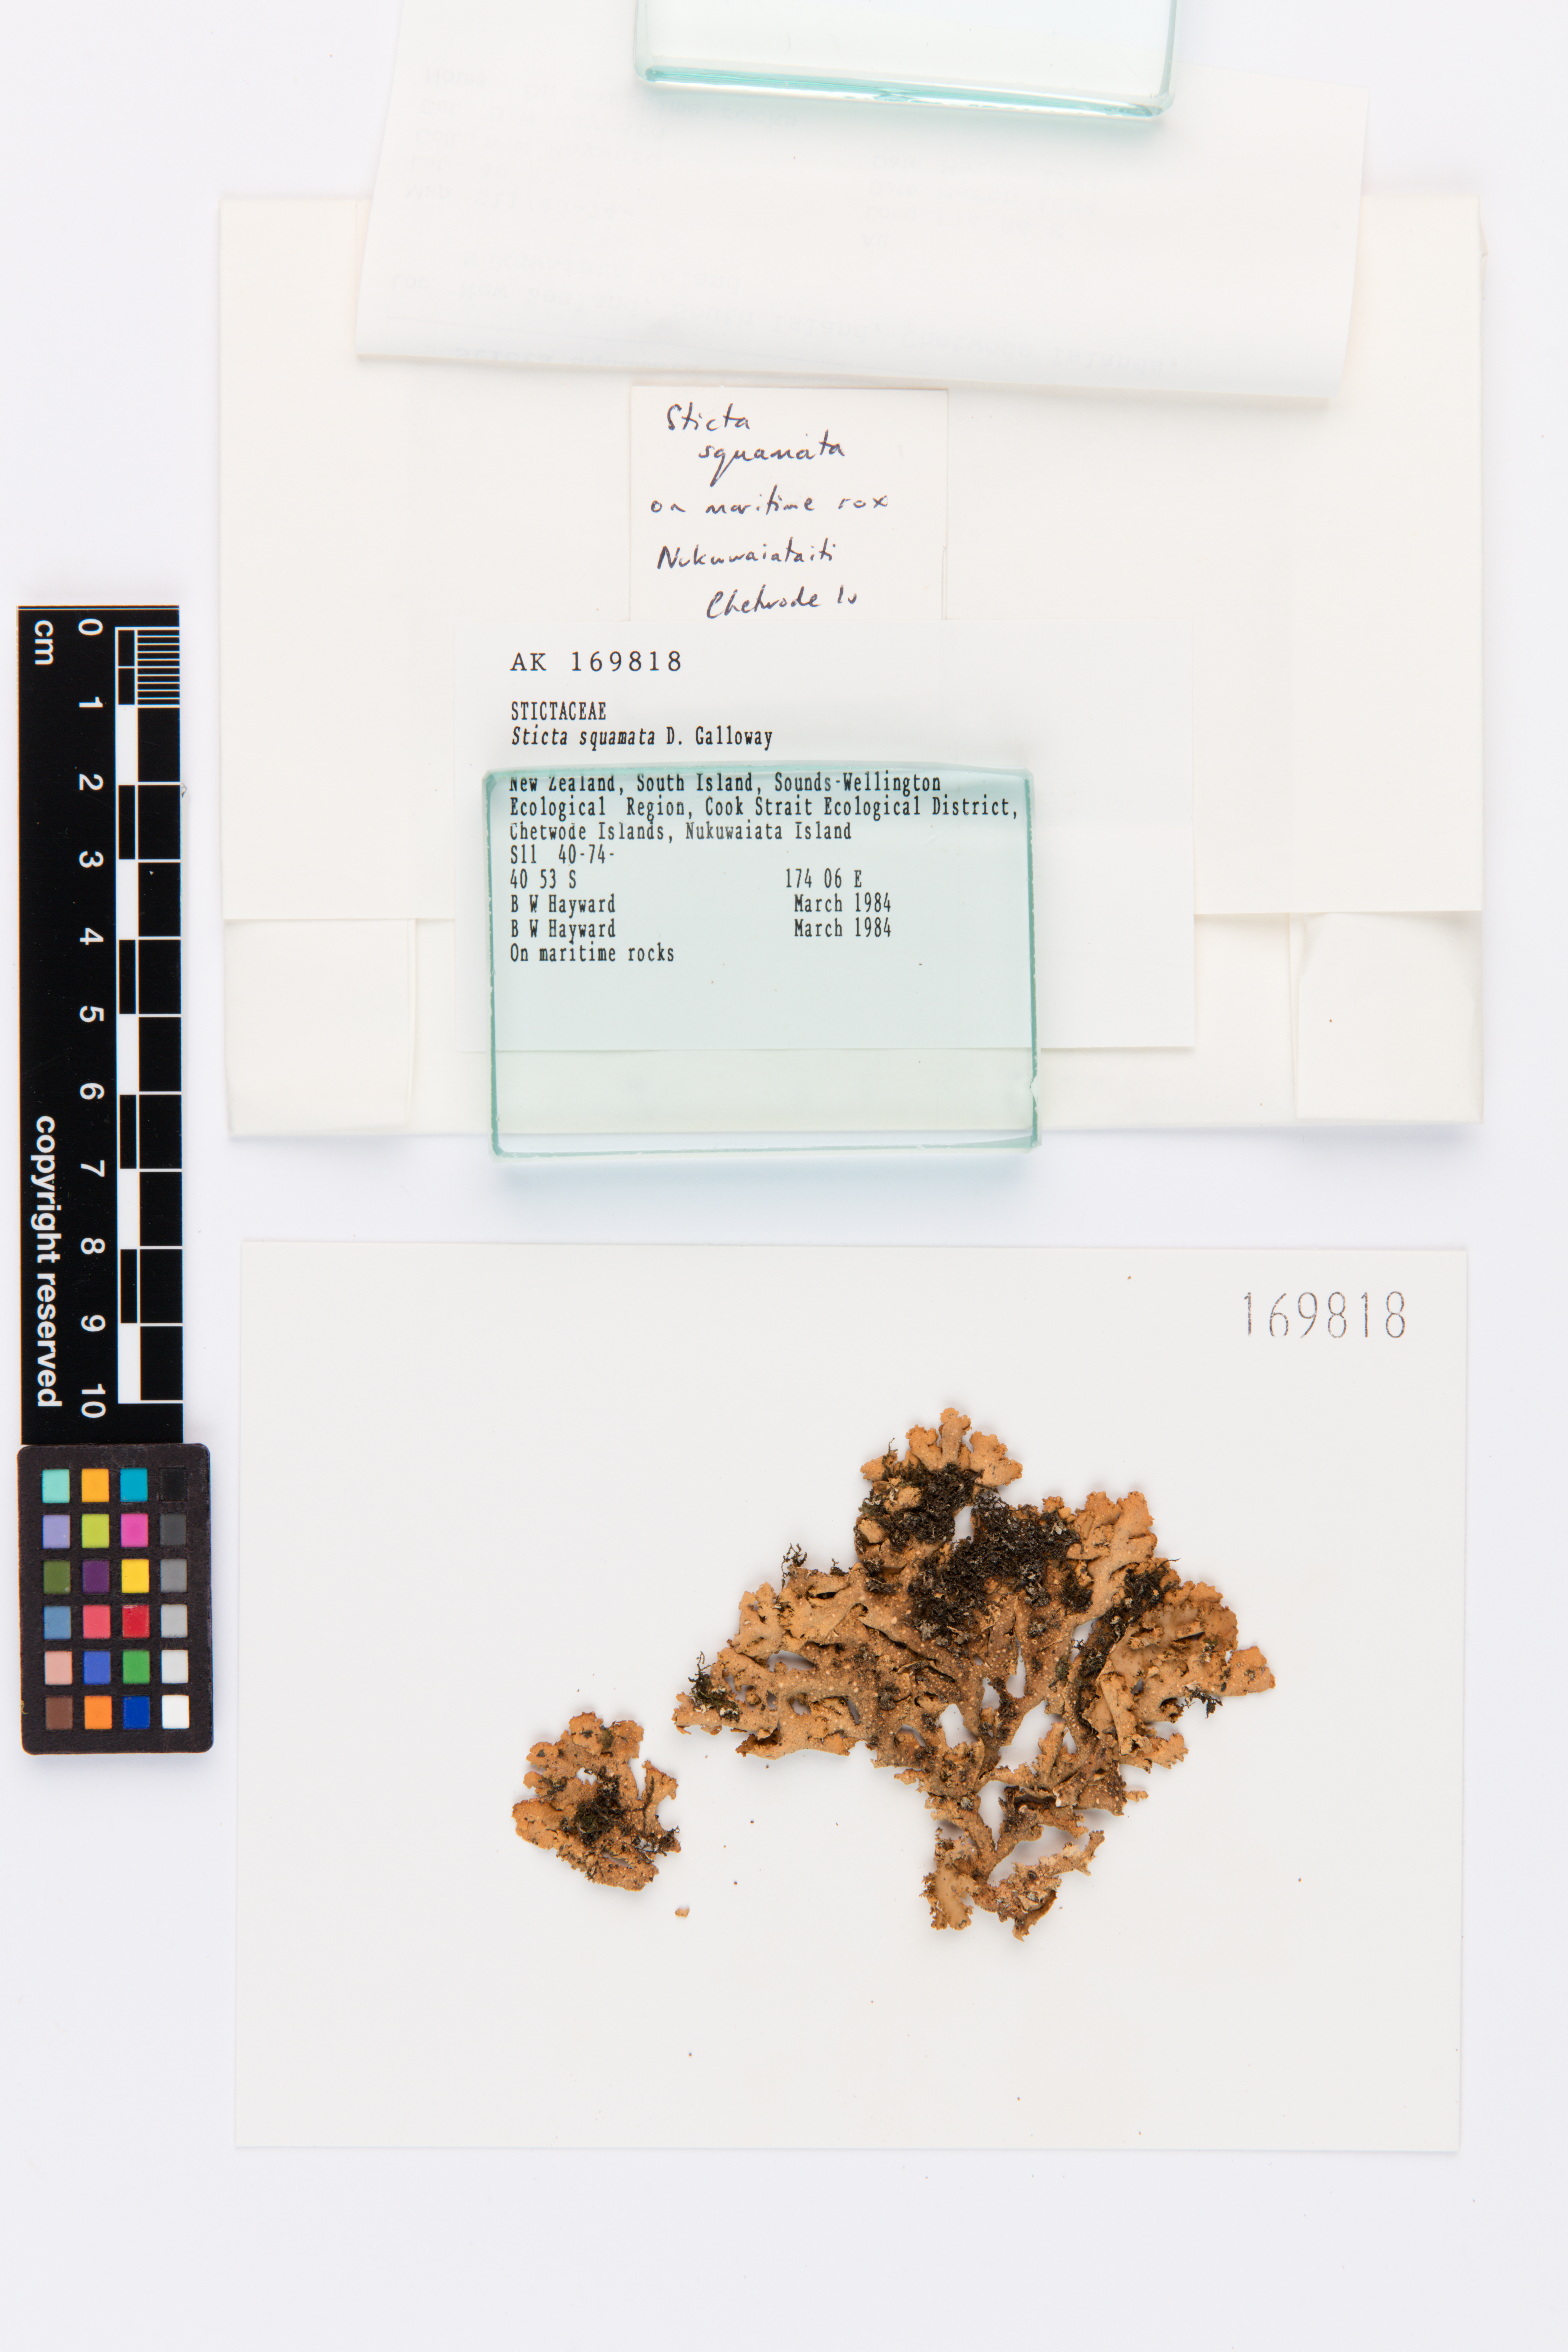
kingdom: Fungi
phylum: Ascomycota
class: Lecanoromycetes
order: Peltigerales
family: Lobariaceae
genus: Sticta
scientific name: Sticta squamata
